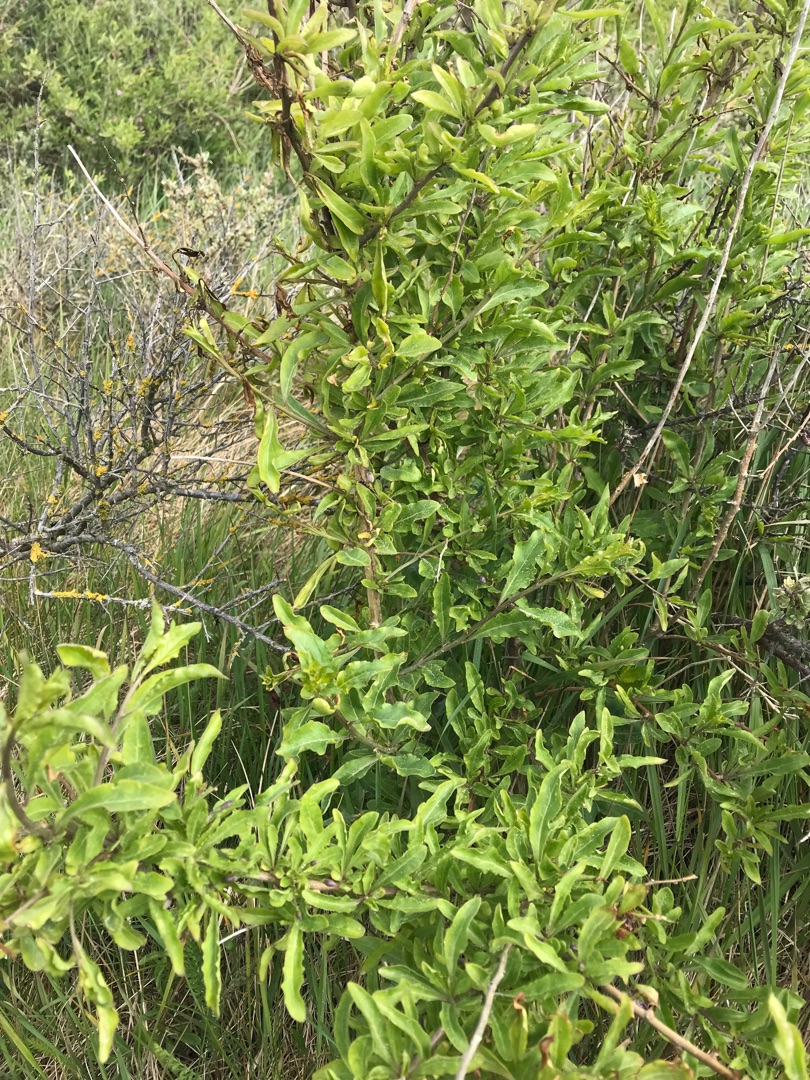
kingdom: Plantae
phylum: Tracheophyta
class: Magnoliopsida
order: Solanales
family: Solanaceae
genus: Lycium
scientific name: Lycium barbarum
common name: Bukketorn
